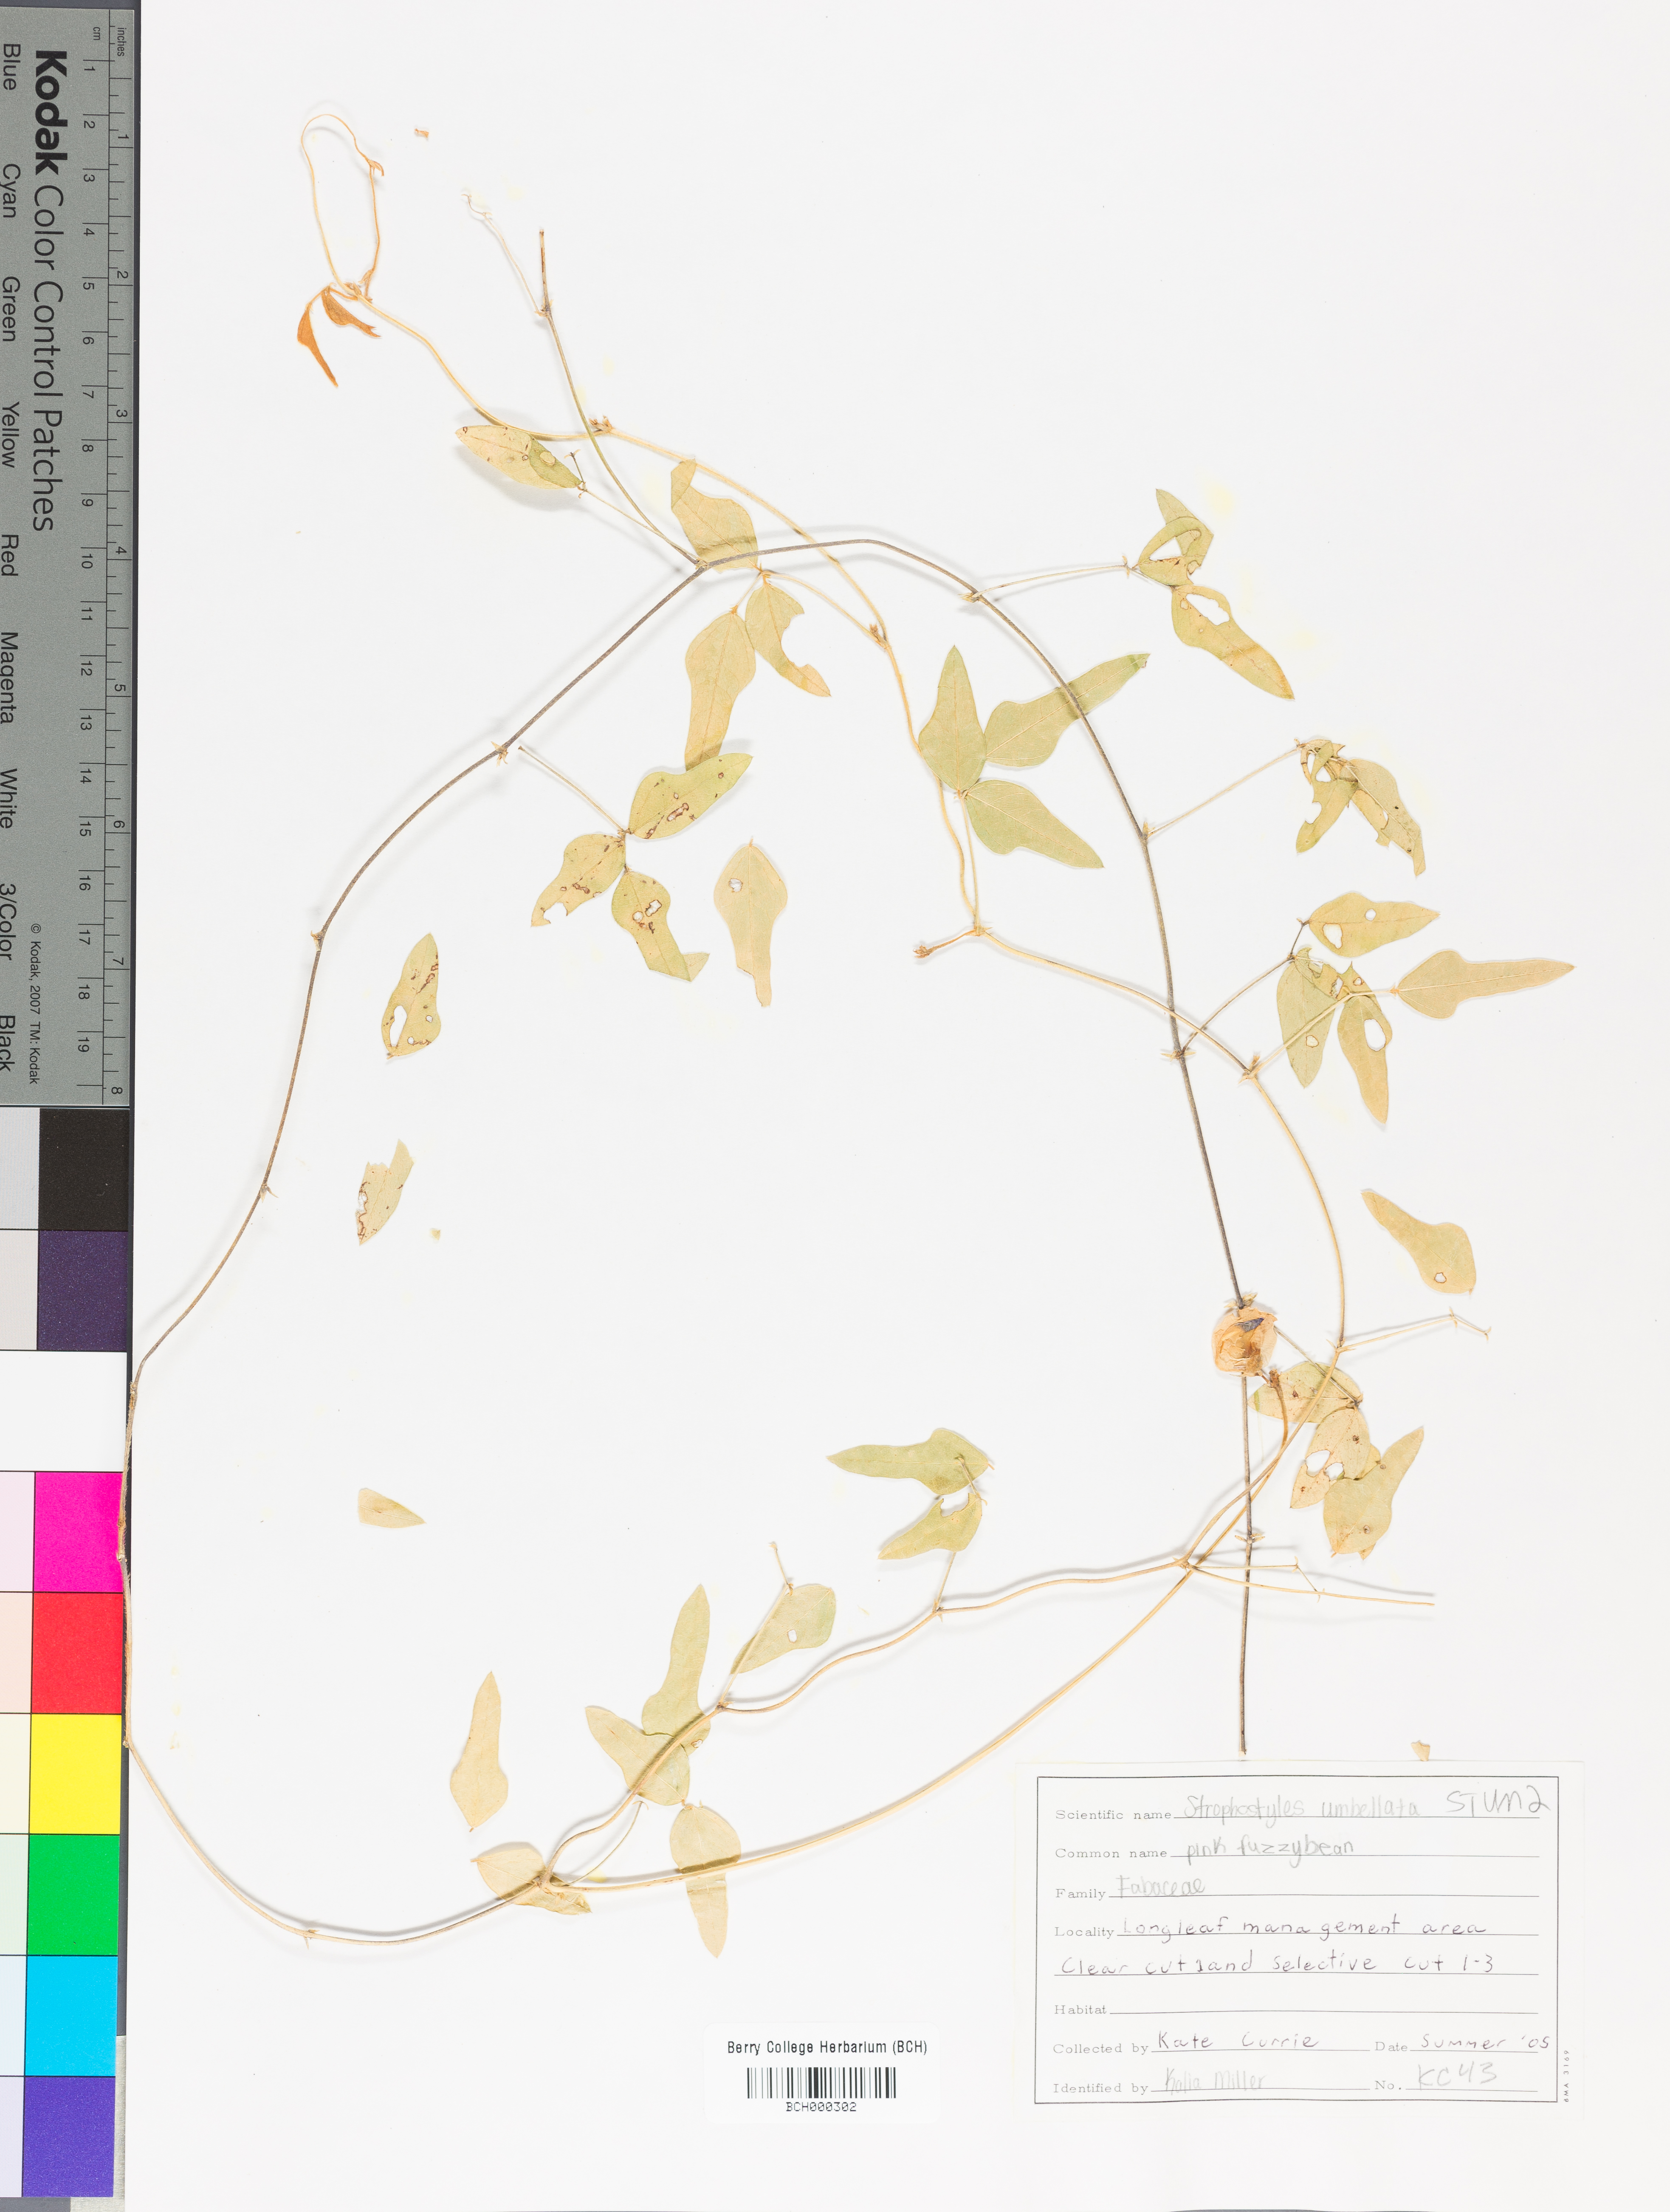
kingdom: Plantae
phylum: Tracheophyta
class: Magnoliopsida
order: Fabales
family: Fabaceae
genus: Strophostyles
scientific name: Strophostyles umbellata
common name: Perennial wild bean
